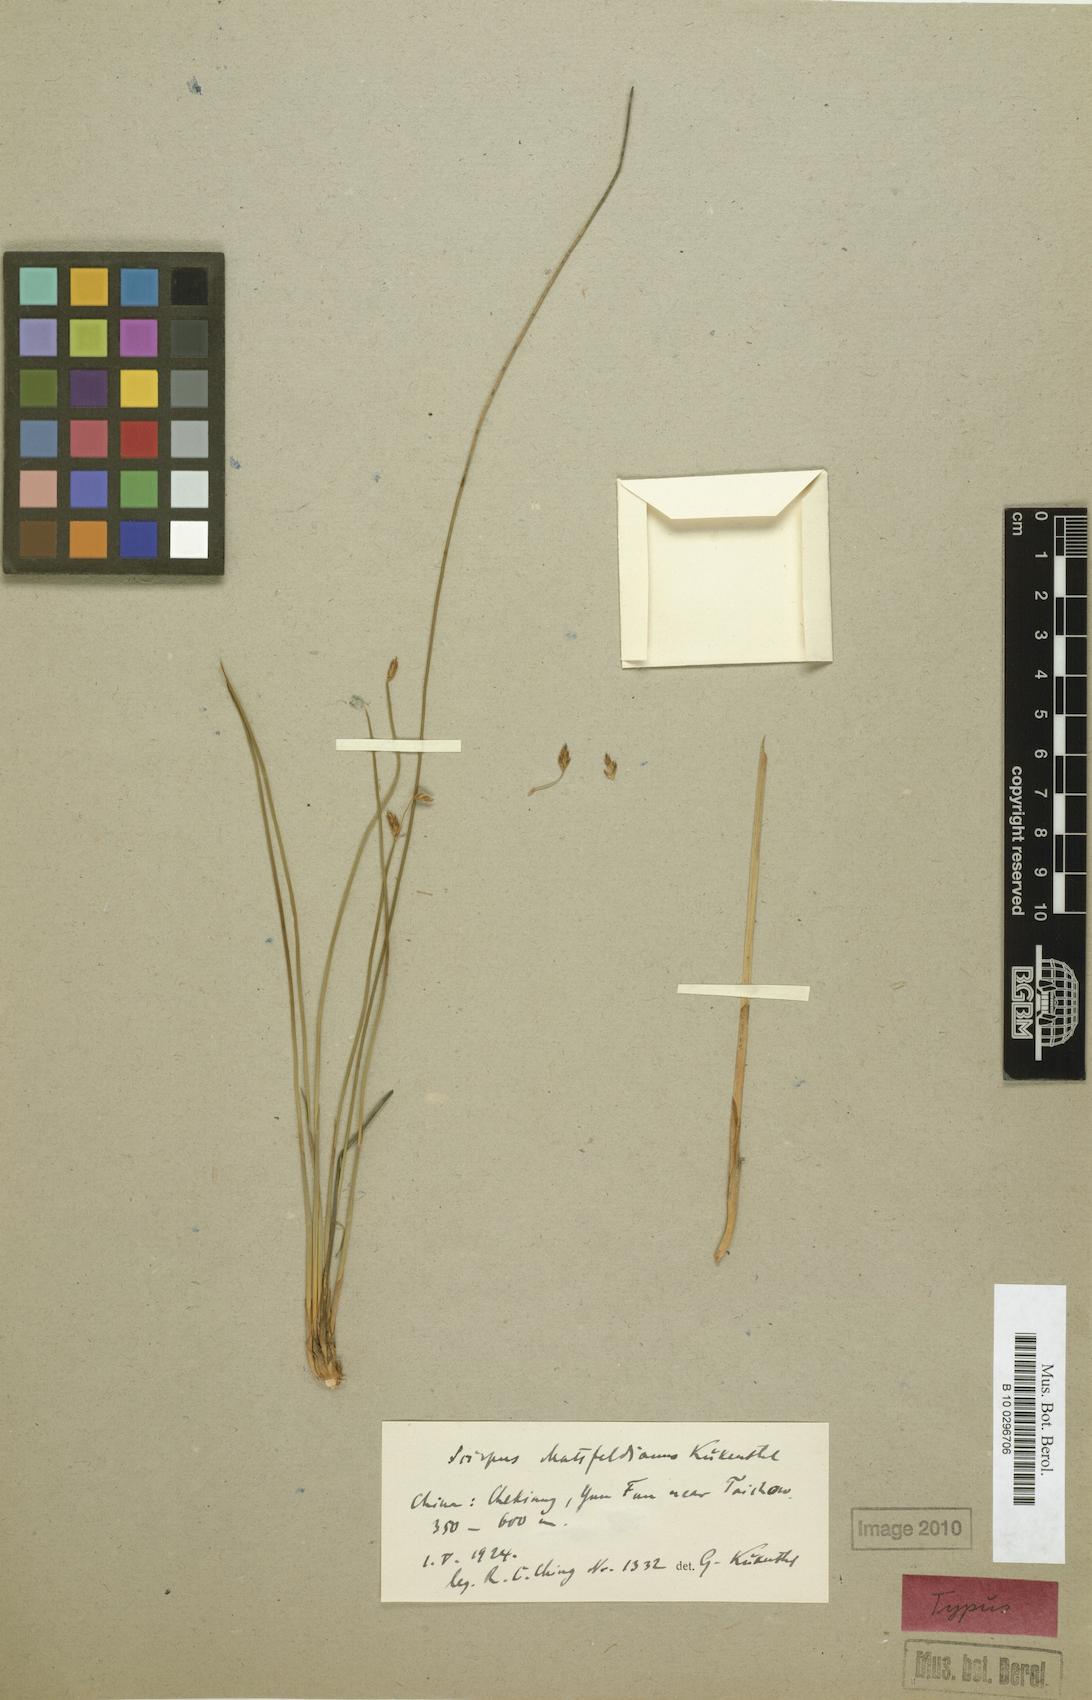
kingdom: Plantae
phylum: Tracheophyta
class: Liliopsida
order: Poales
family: Cyperaceae
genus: Trichophorum
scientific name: Trichophorum mattfeldianum
